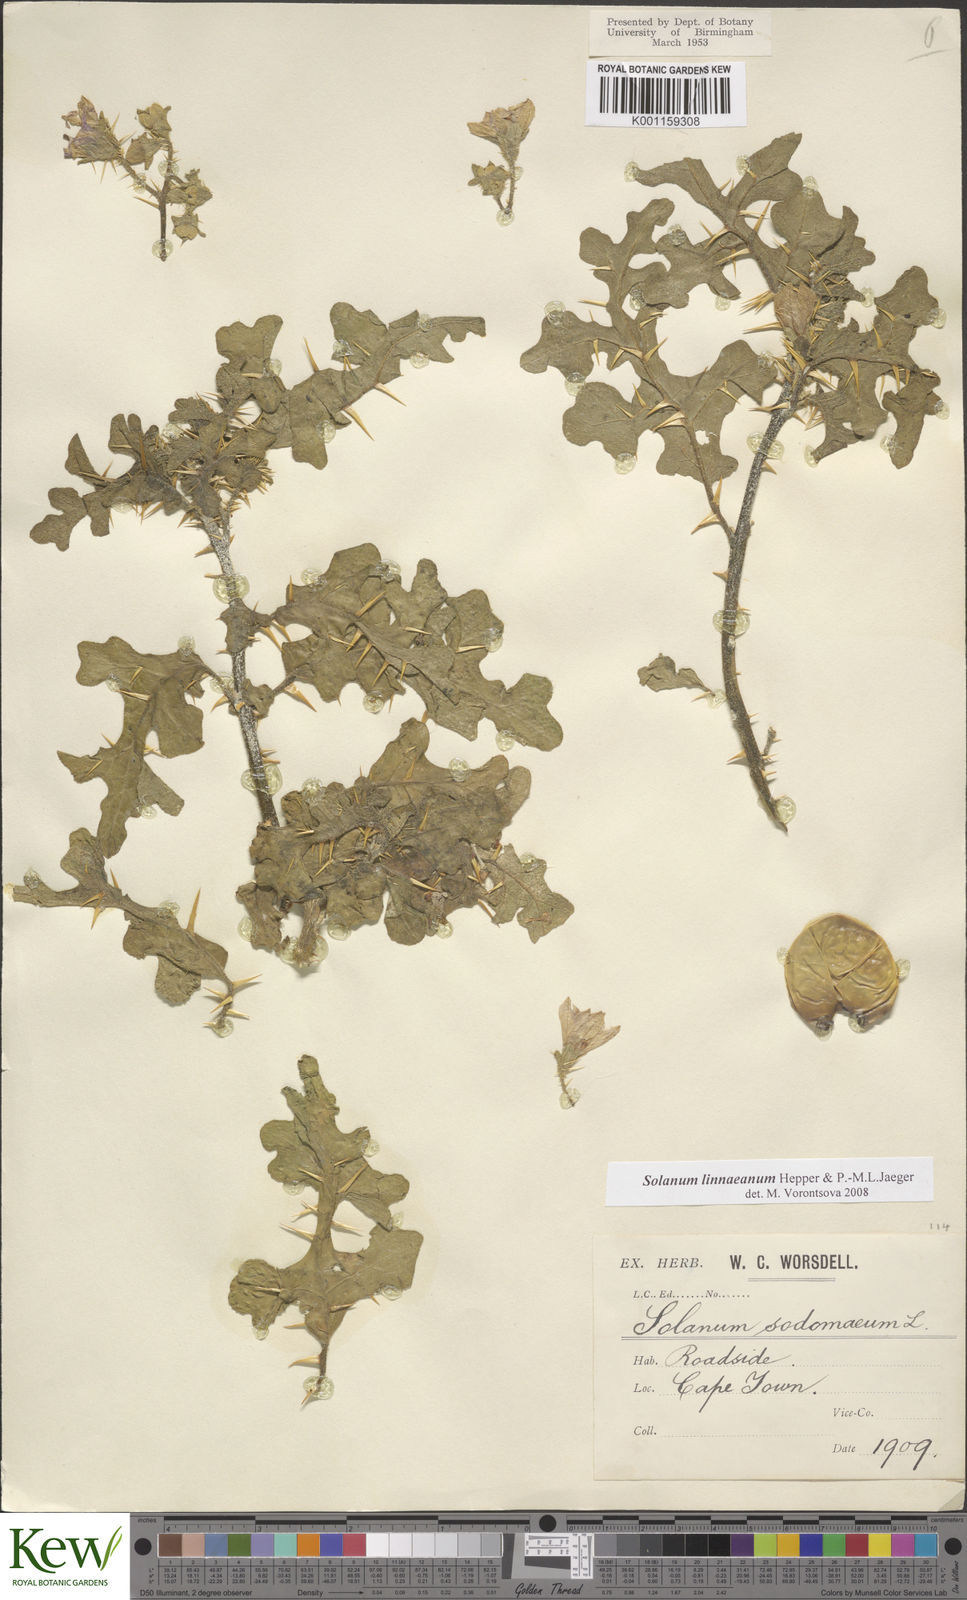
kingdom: Plantae
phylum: Tracheophyta
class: Magnoliopsida
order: Solanales
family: Solanaceae
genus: Solanum
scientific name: Solanum linnaeanum
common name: Nightshade
